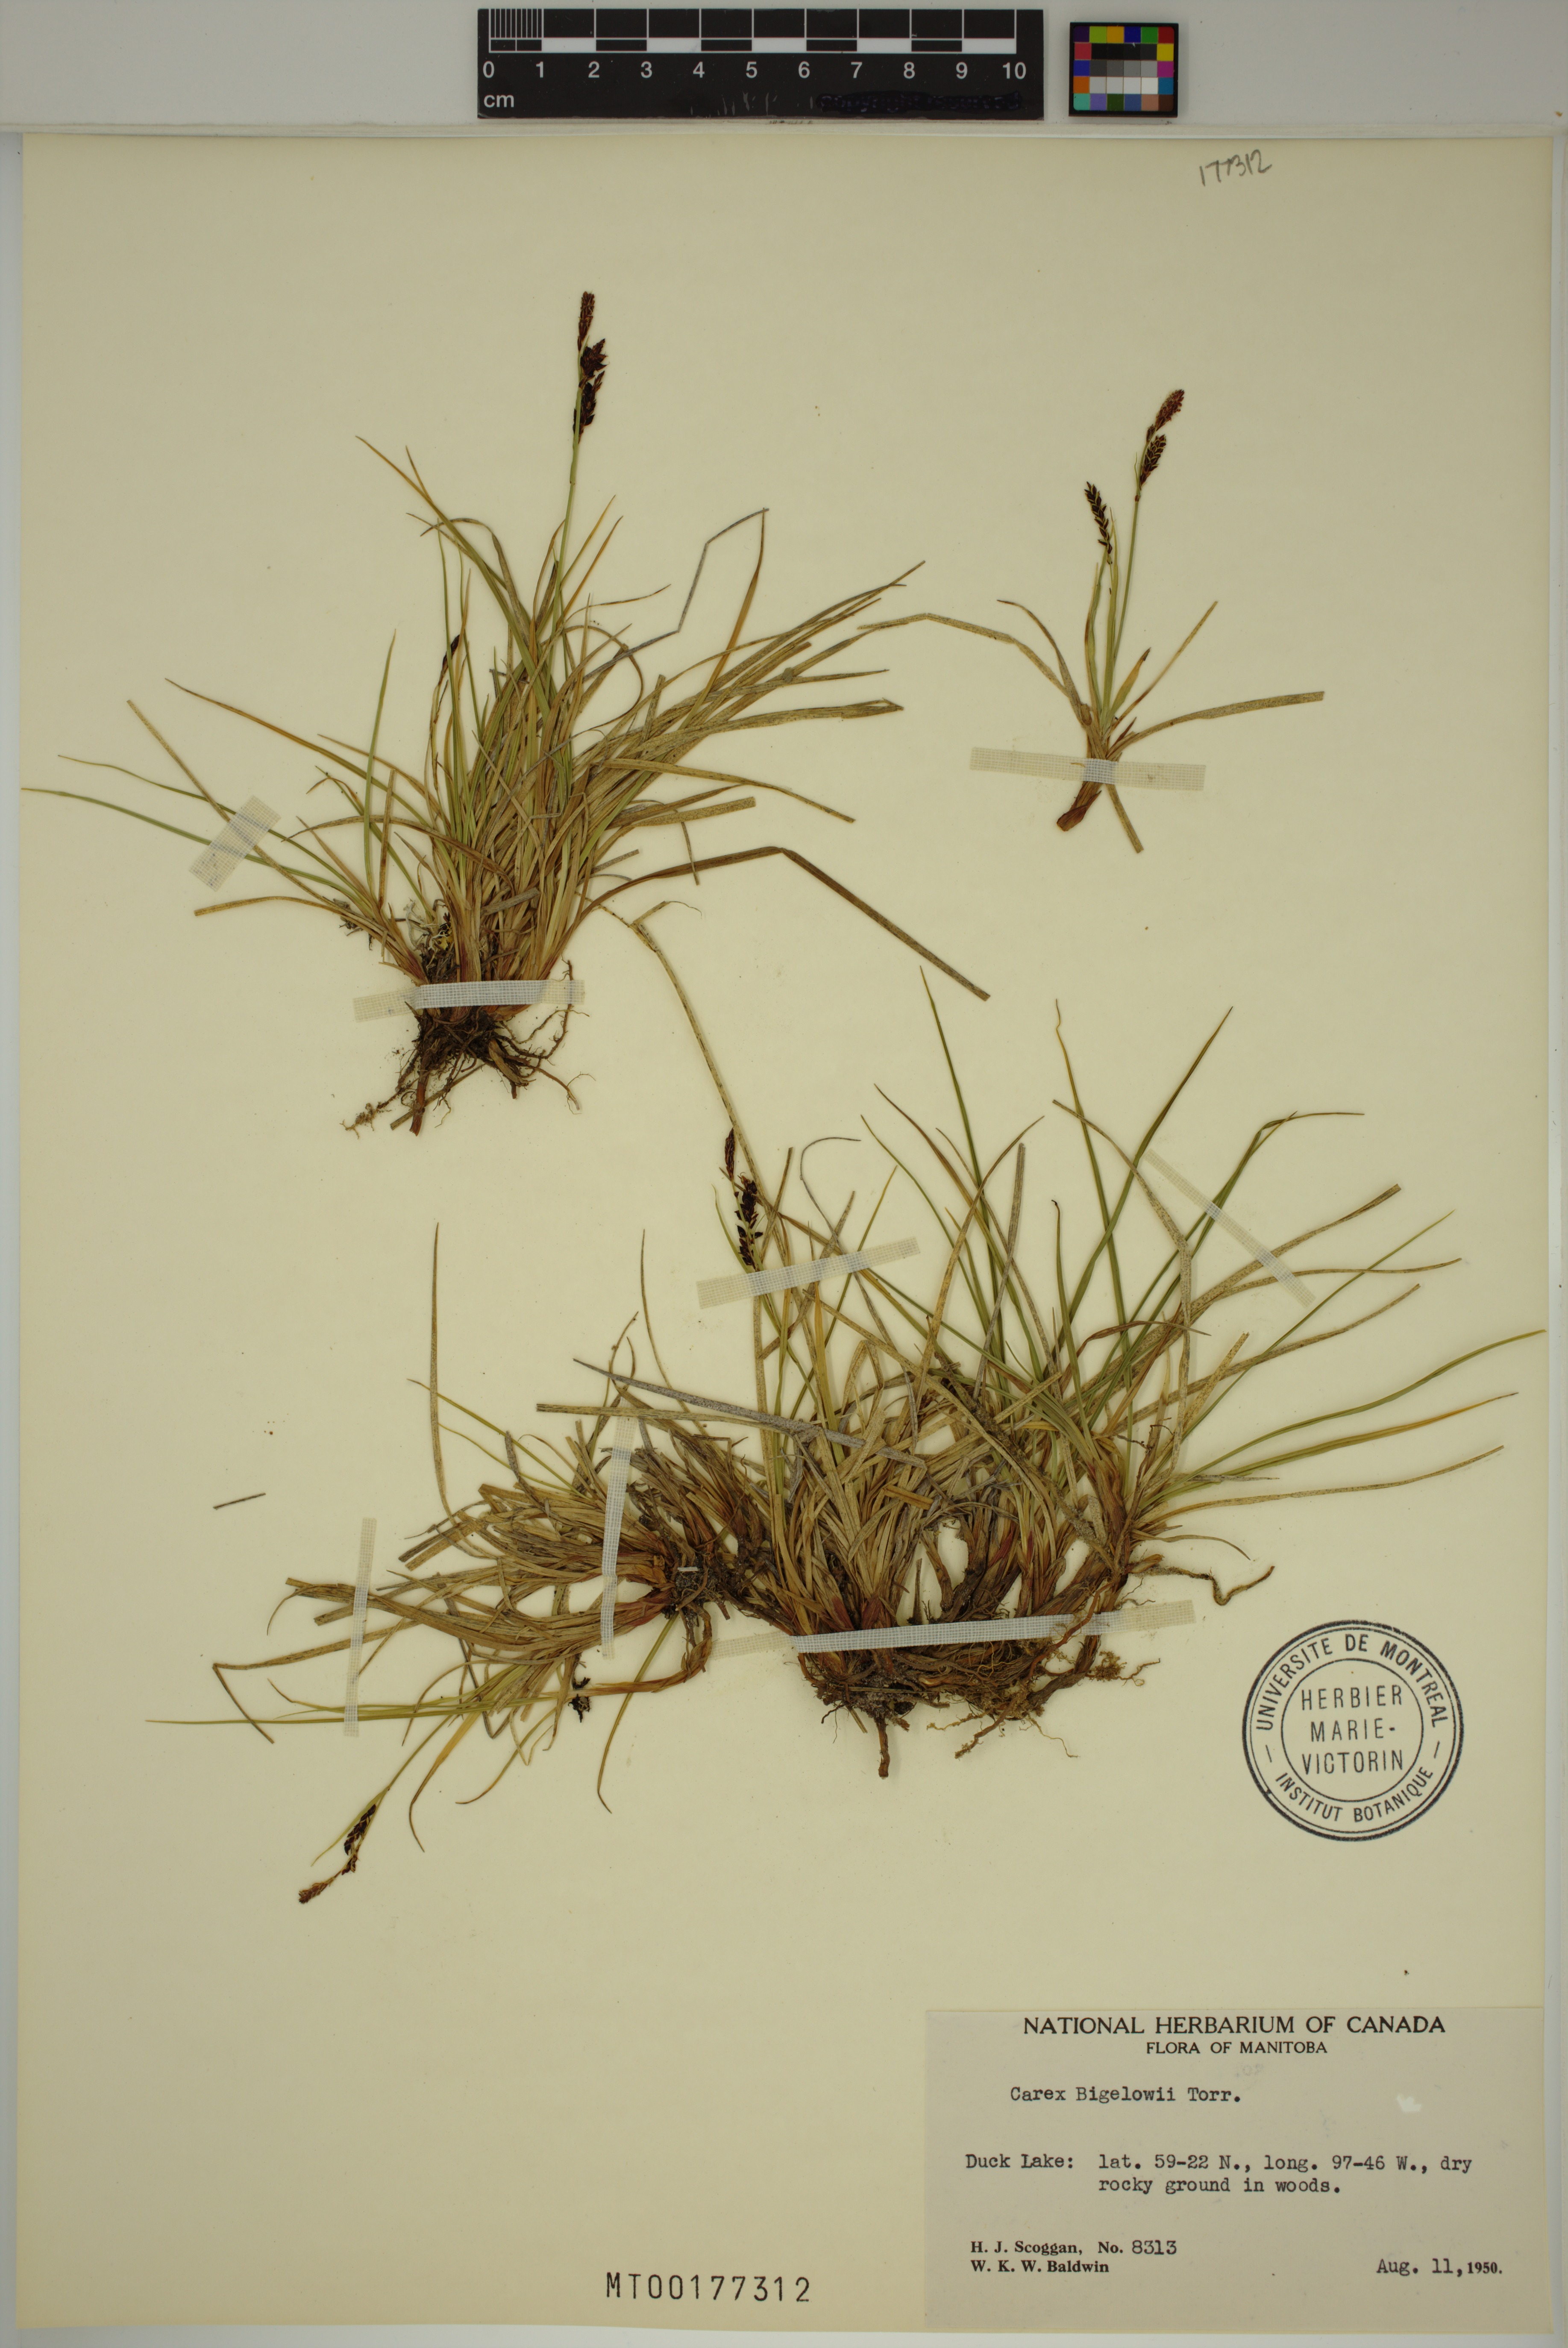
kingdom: Plantae
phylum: Tracheophyta
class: Liliopsida
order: Poales
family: Cyperaceae
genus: Carex
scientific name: Carex bigelowii
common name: Stiff sedge
